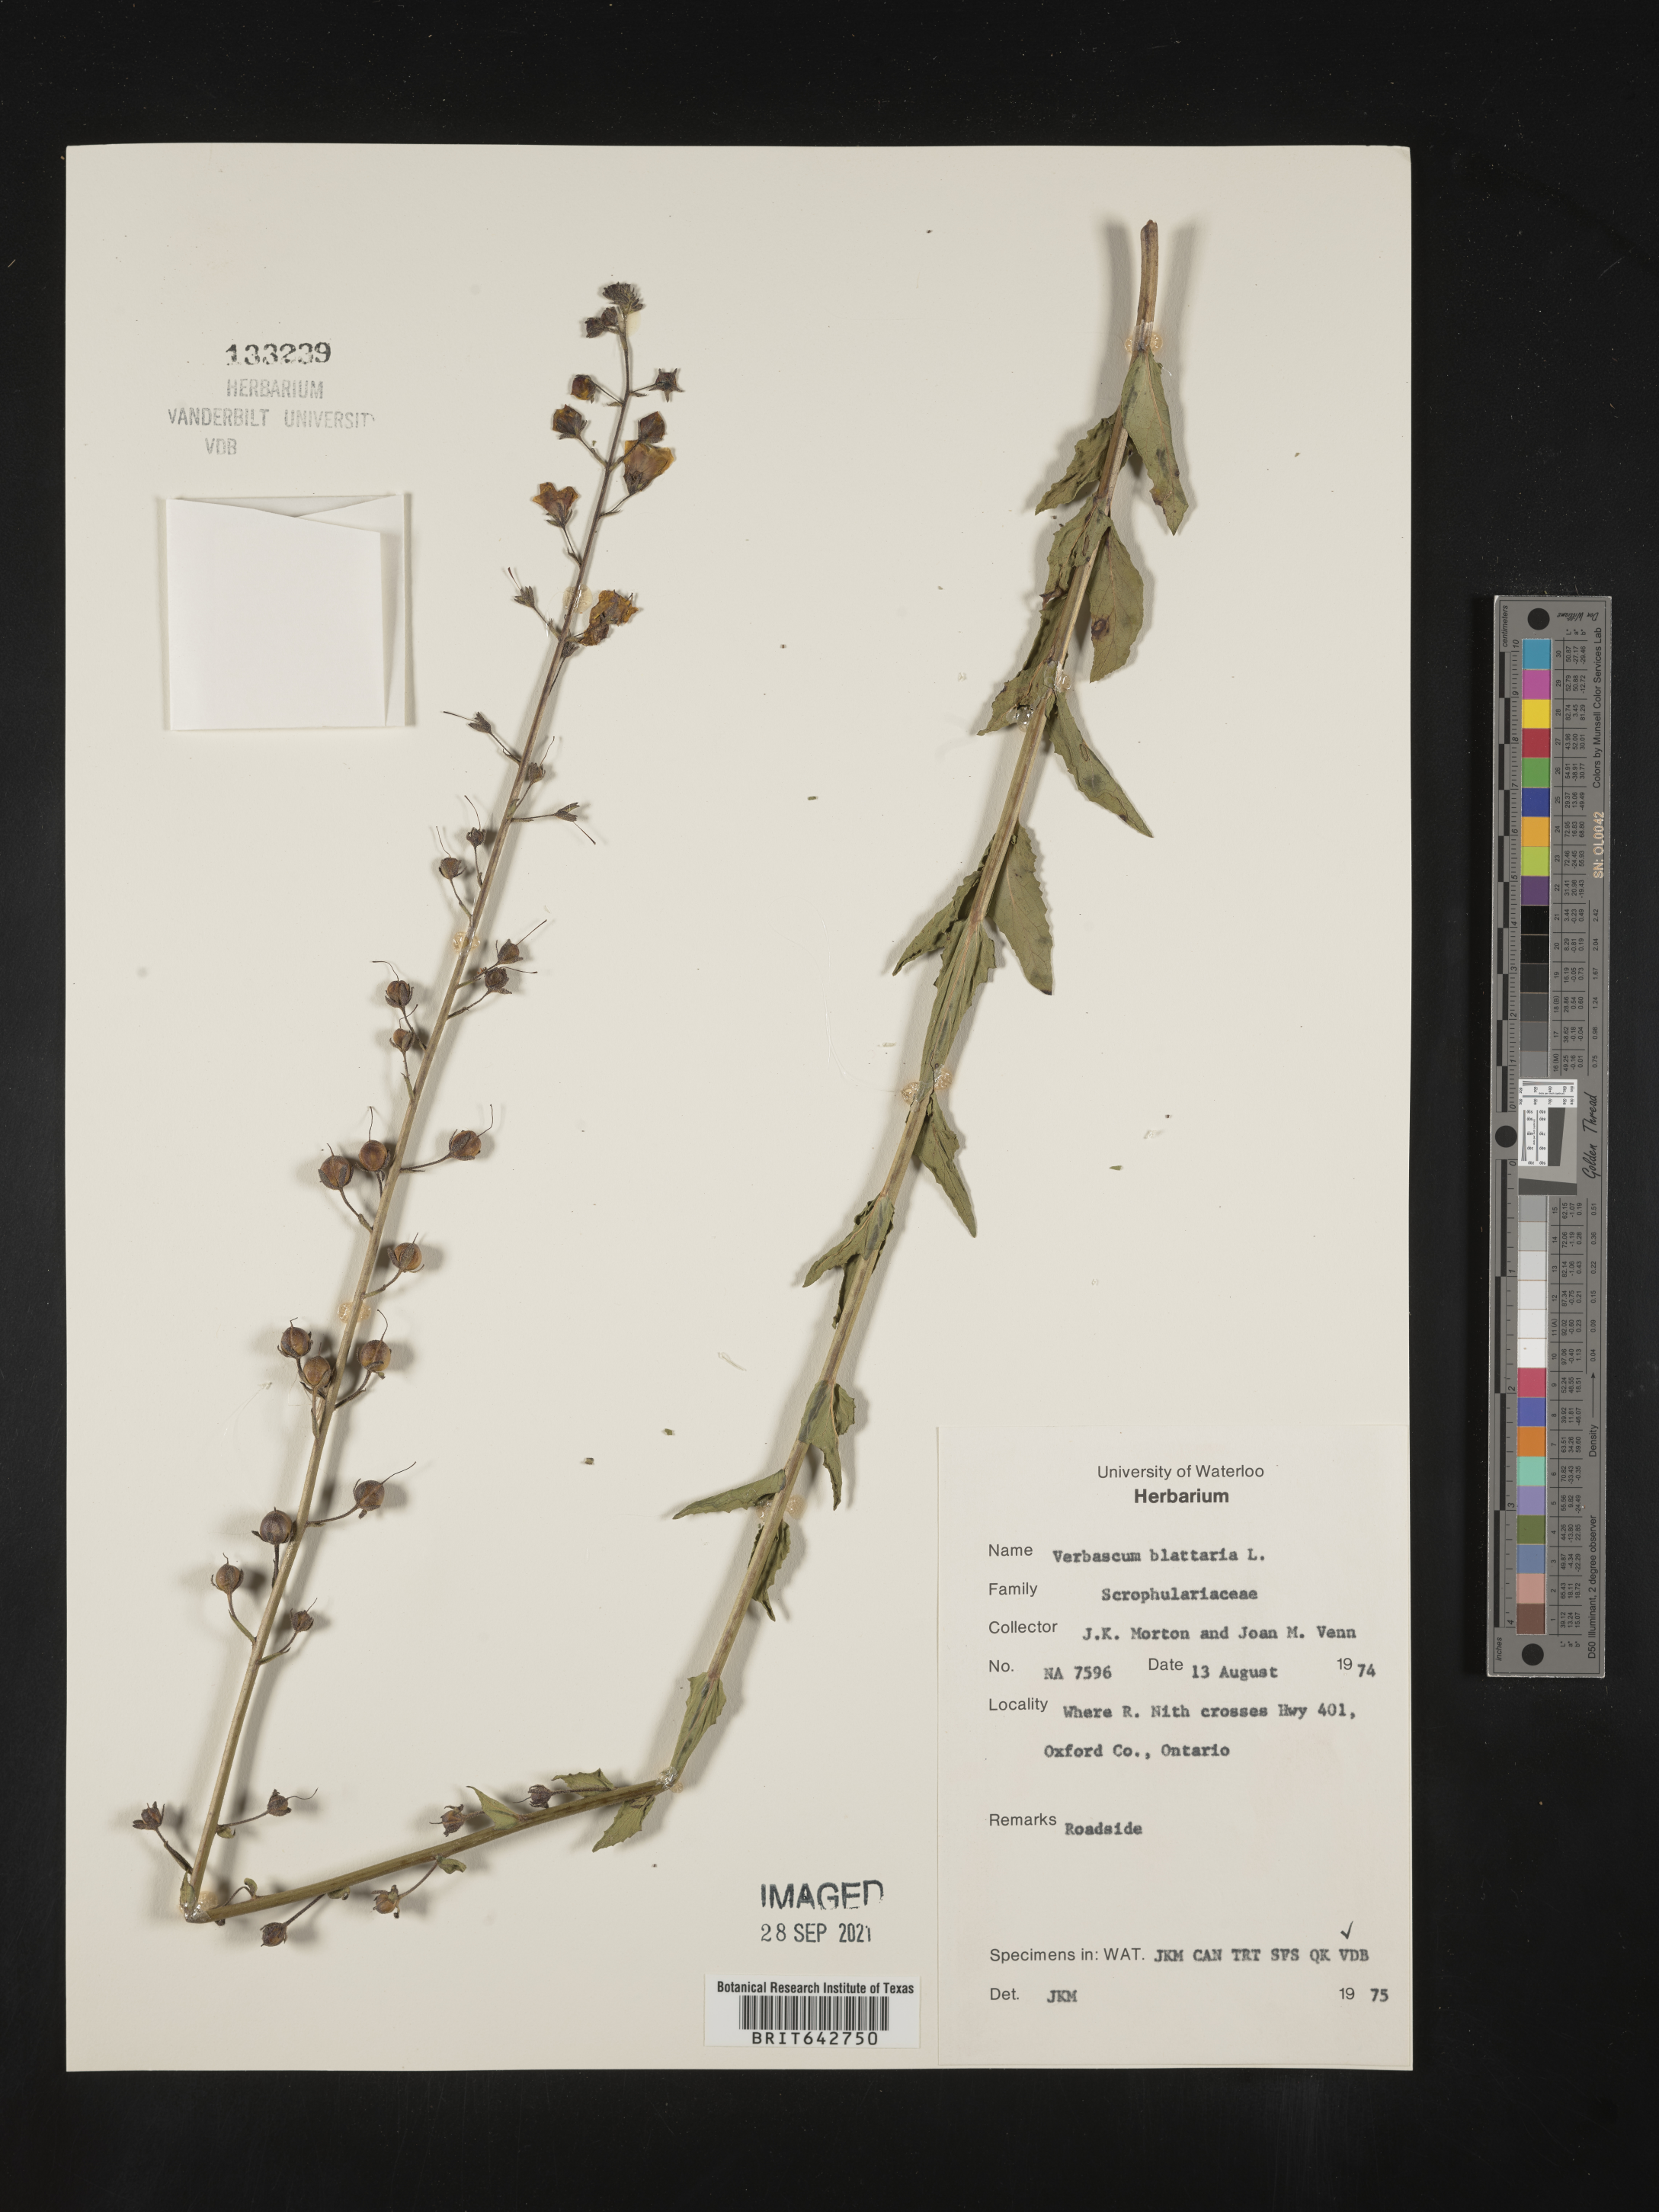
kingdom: Plantae
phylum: Tracheophyta
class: Magnoliopsida
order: Lamiales
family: Scrophulariaceae
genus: Verbascum
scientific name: Verbascum
